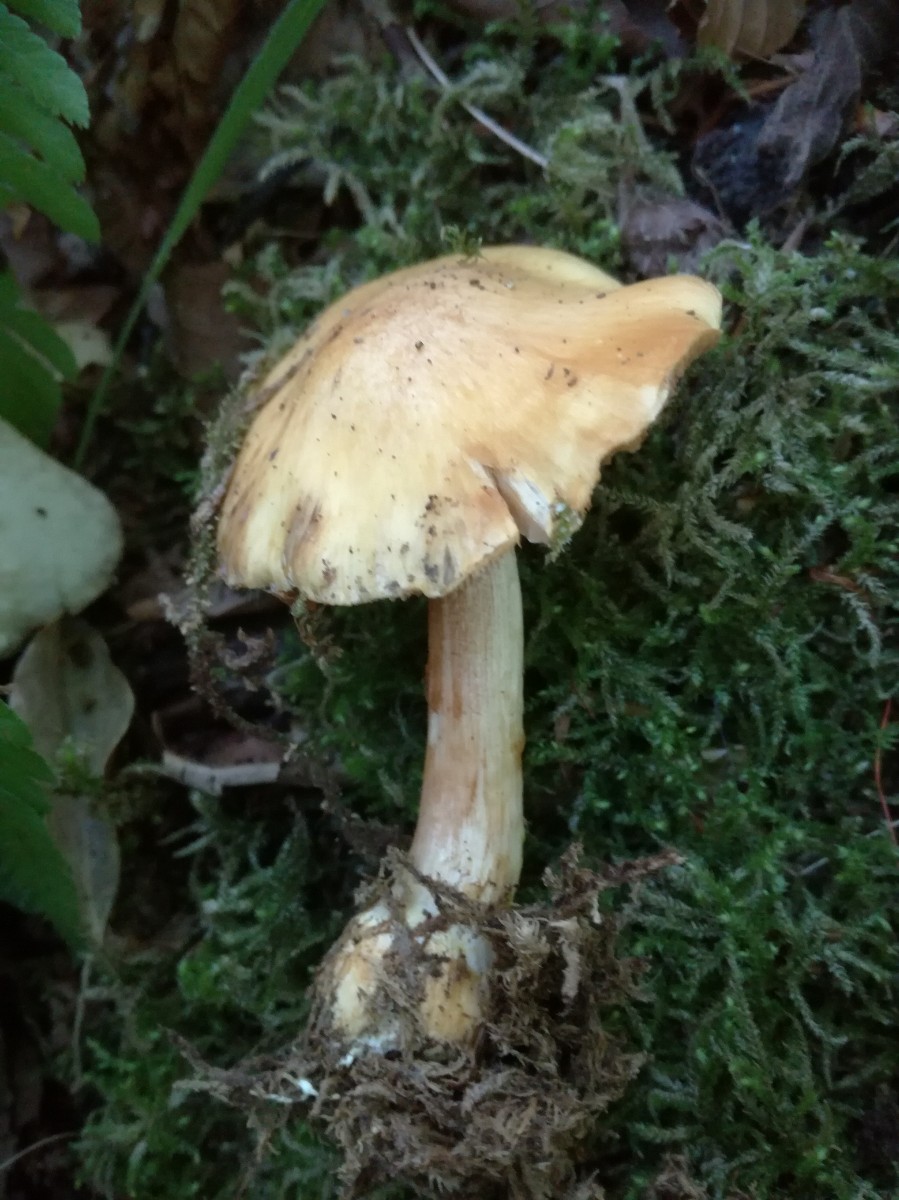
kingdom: Fungi
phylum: Basidiomycota
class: Agaricomycetes
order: Agaricales
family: Cortinariaceae
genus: Phlegmacium
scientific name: Phlegmacium cruentipellis
